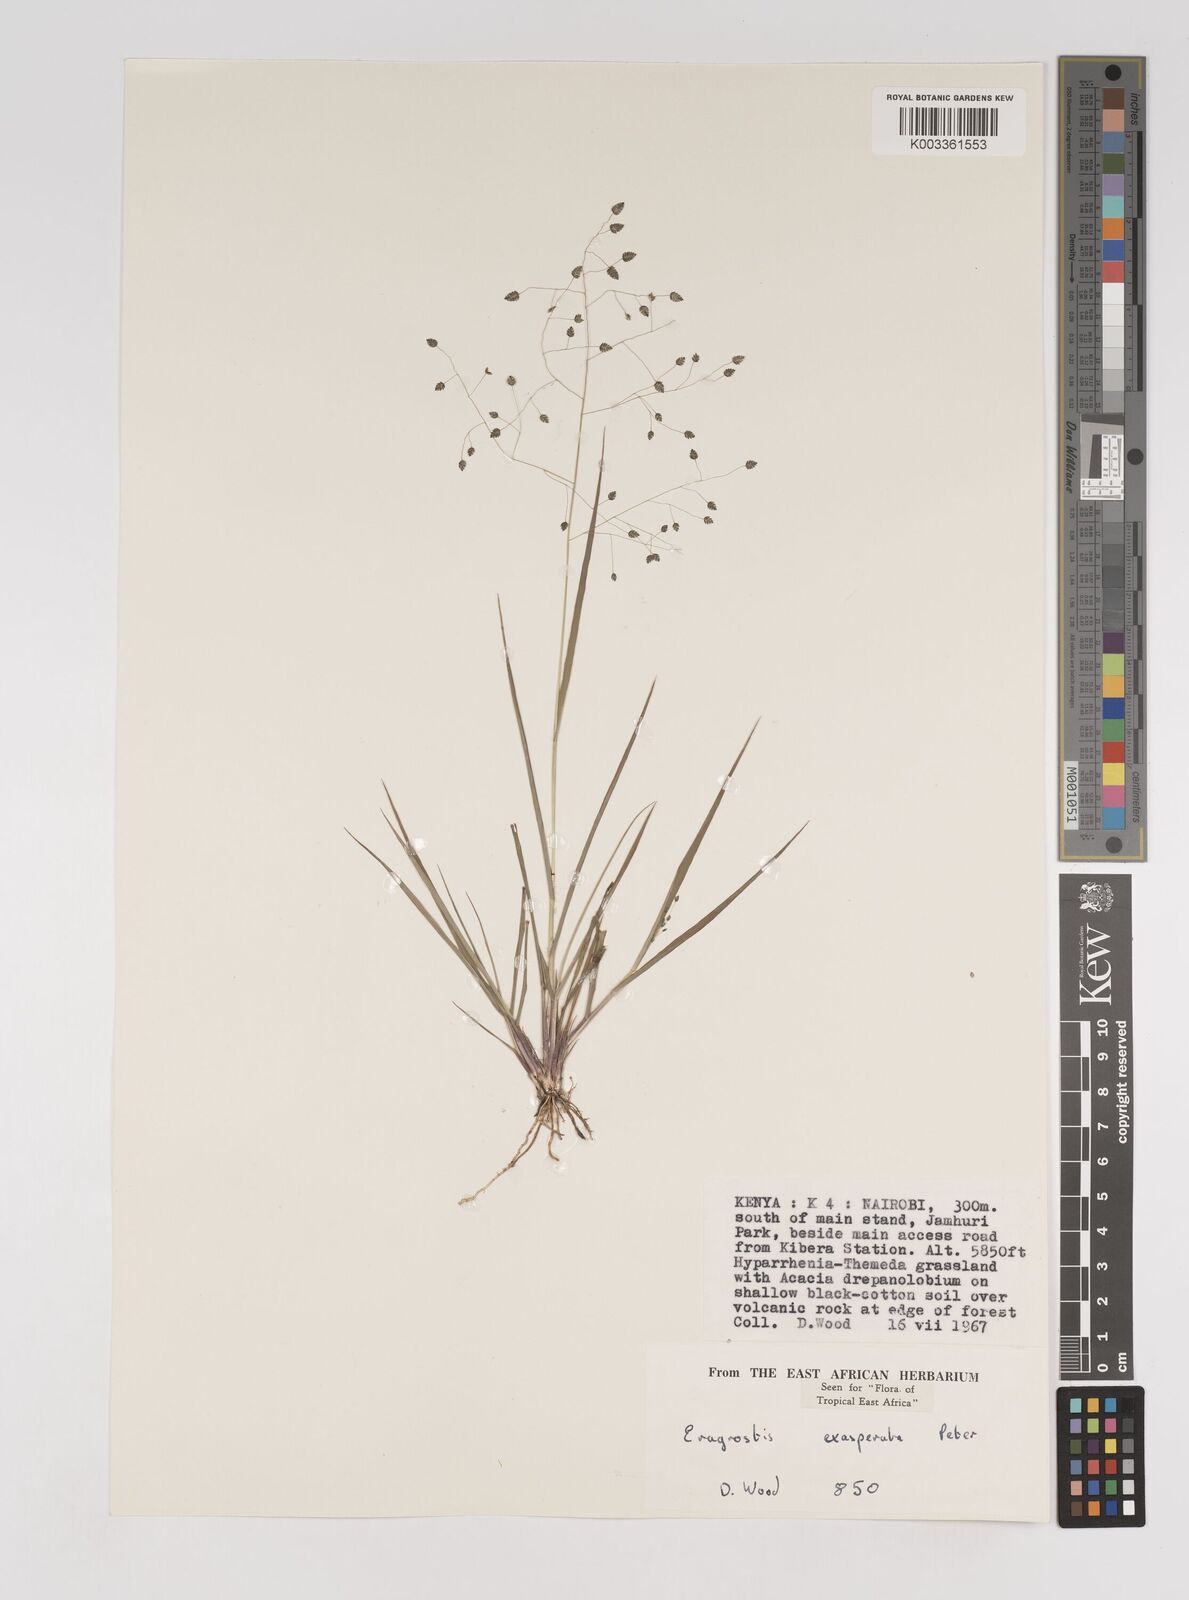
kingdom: Plantae
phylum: Tracheophyta
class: Liliopsida
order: Poales
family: Poaceae
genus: Eragrostis
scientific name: Eragrostis exasperata
